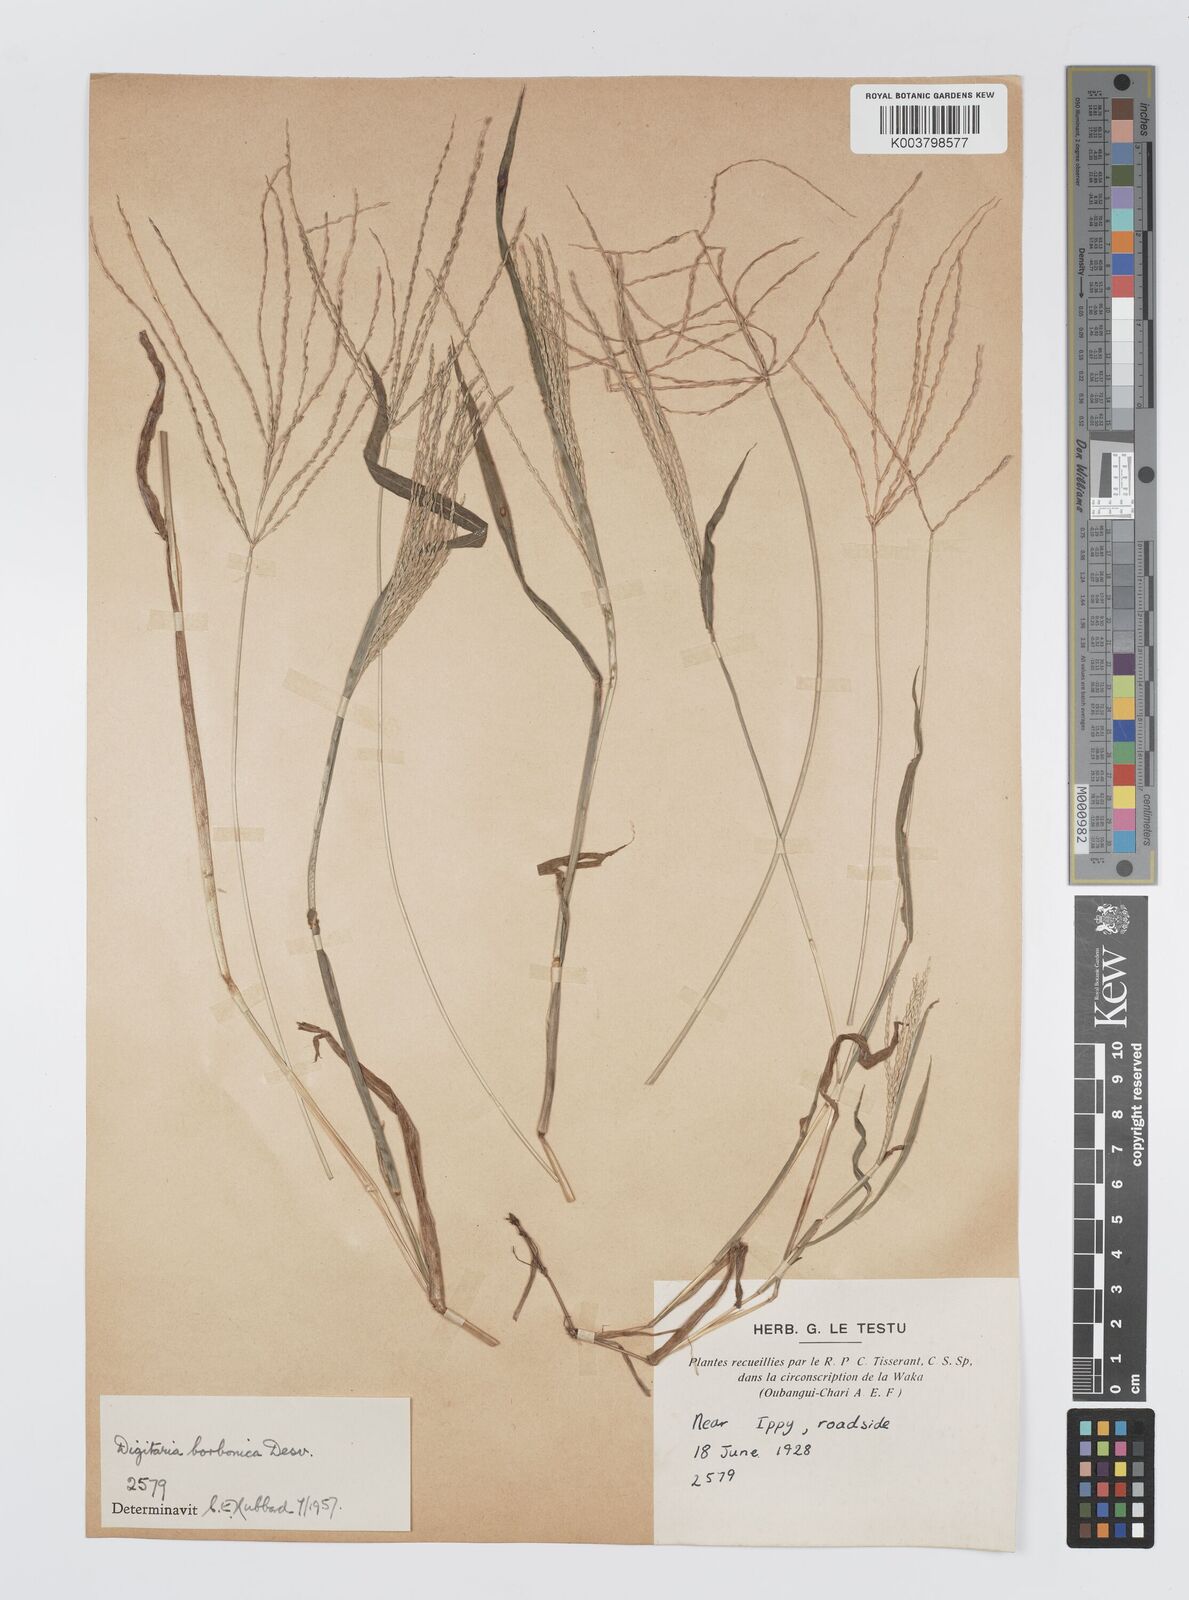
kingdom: Plantae
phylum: Tracheophyta
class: Liliopsida
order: Poales
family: Poaceae
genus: Digitaria
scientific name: Digitaria nuda
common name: Naked crabgrass
